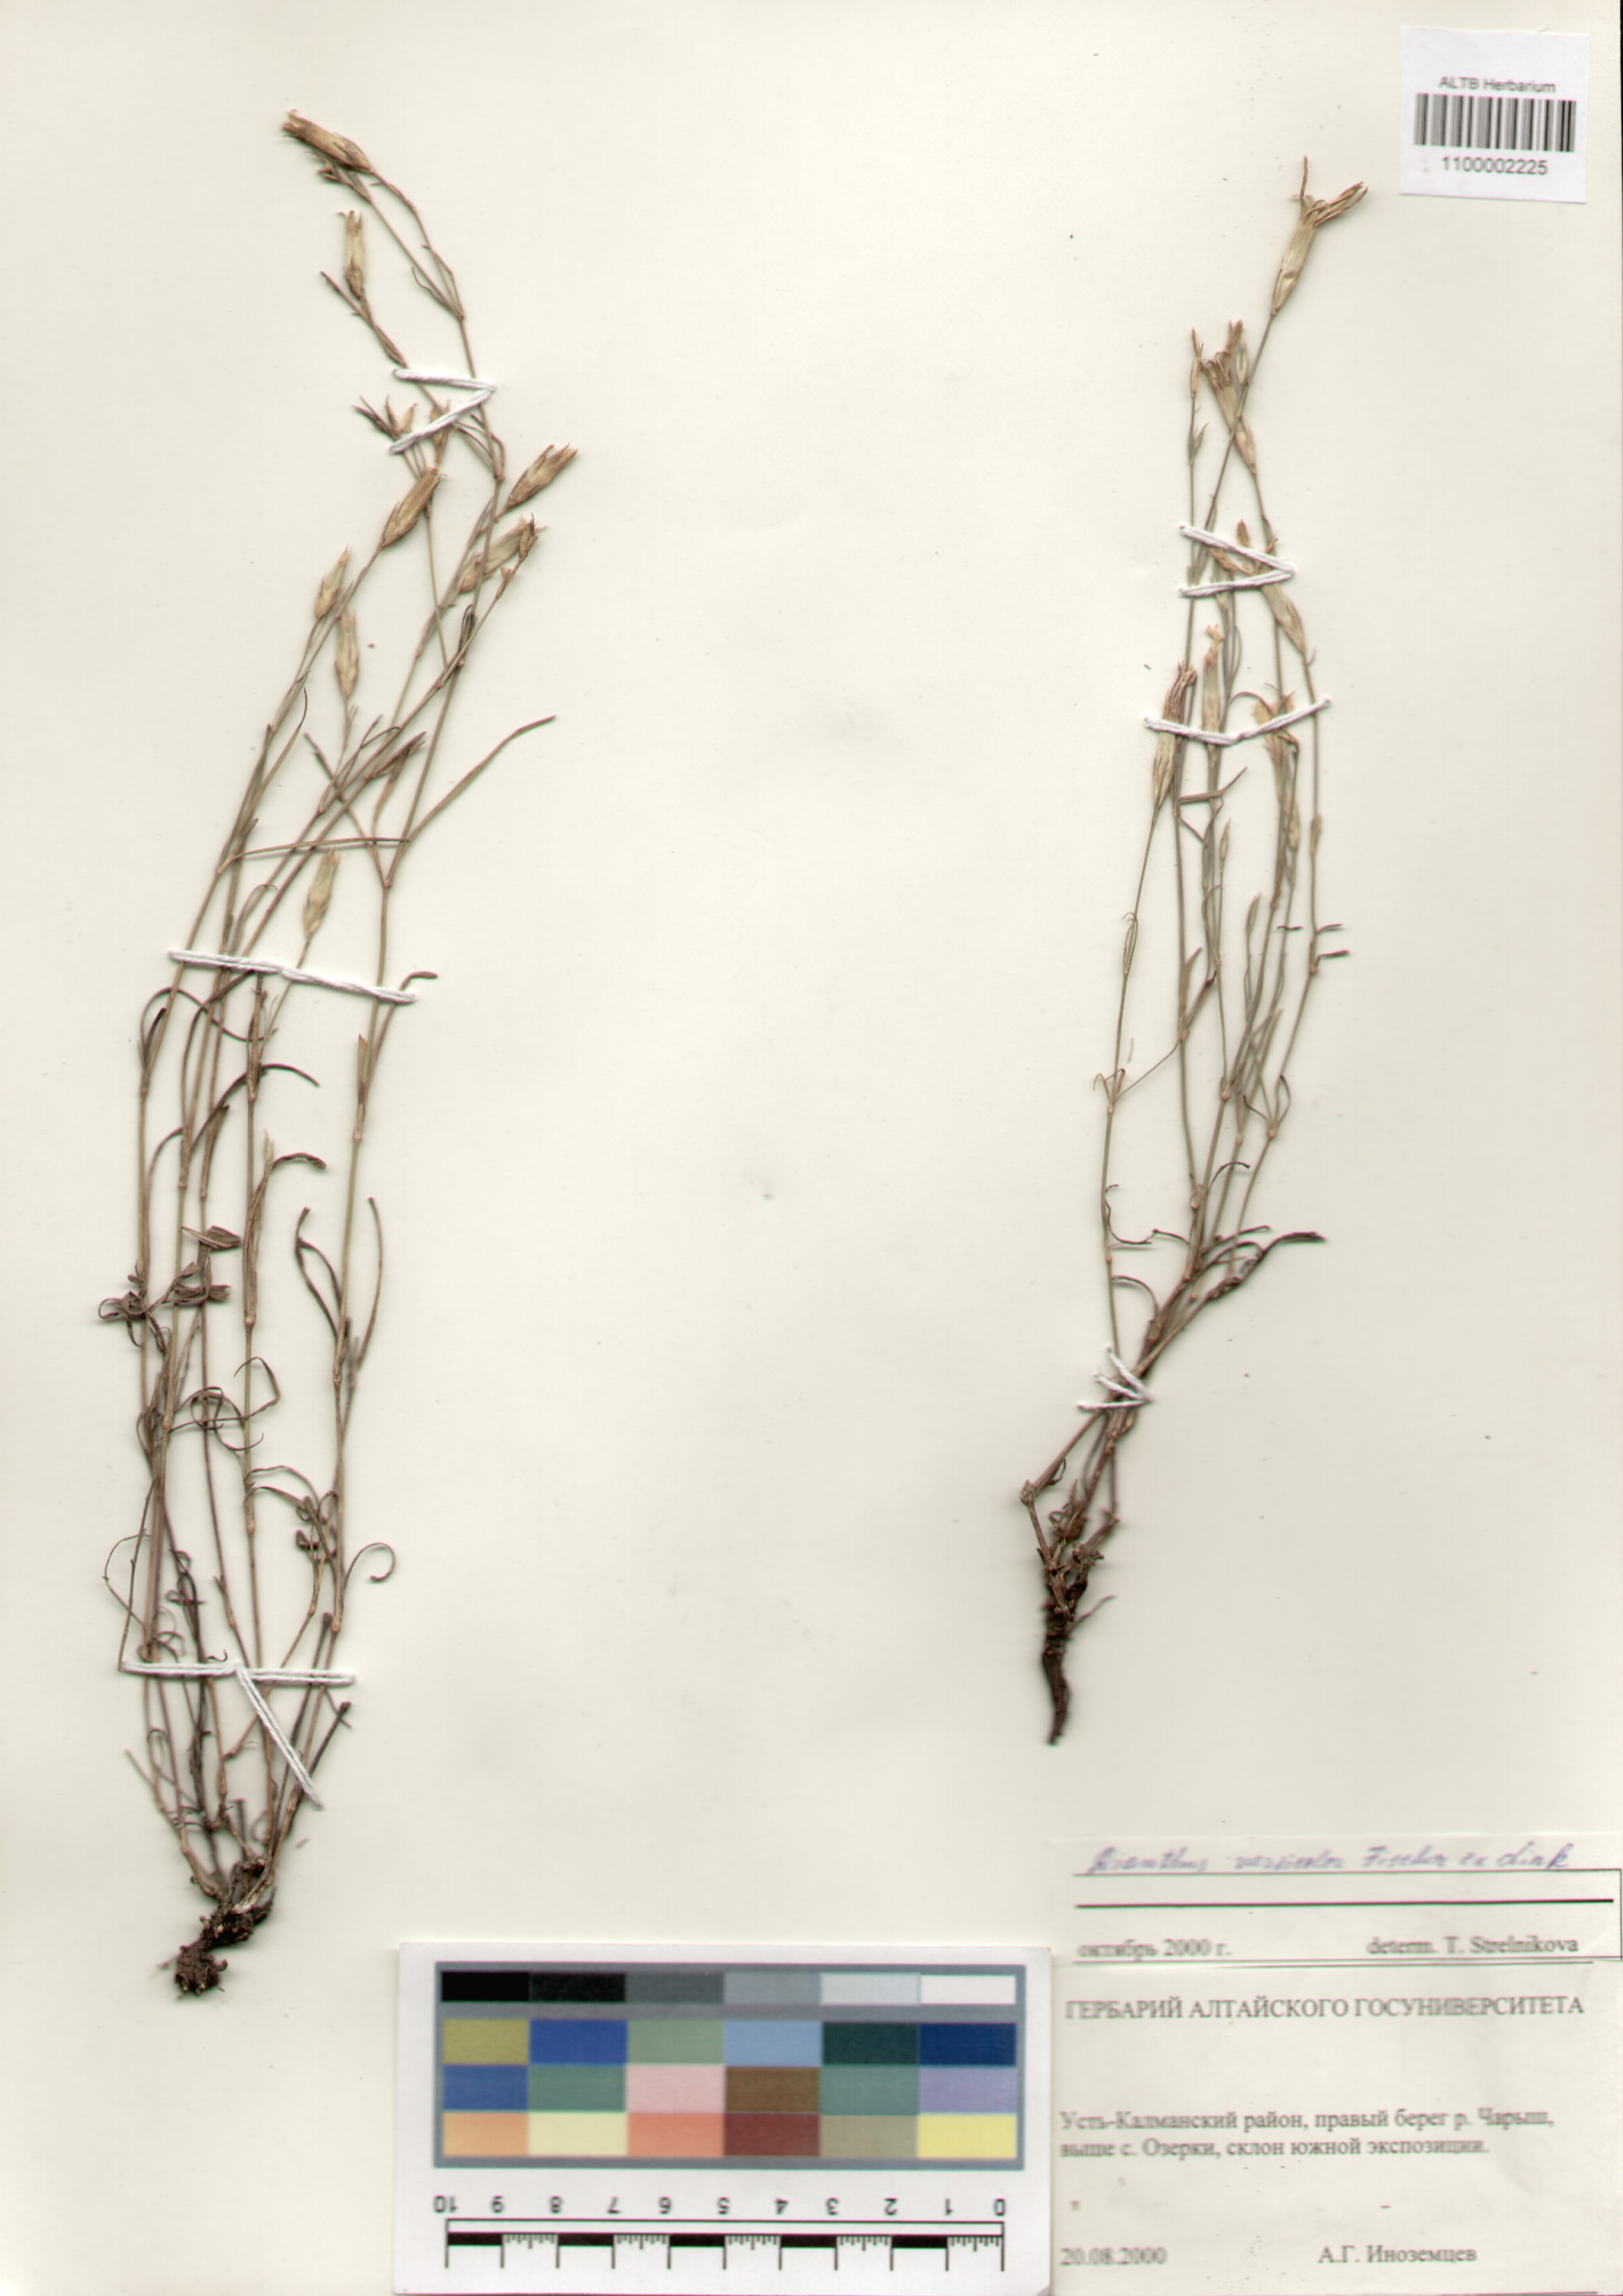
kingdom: Plantae
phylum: Tracheophyta
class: Magnoliopsida
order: Caryophyllales
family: Caryophyllaceae
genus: Dianthus
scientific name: Dianthus chinensis
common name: Rainbow pink
